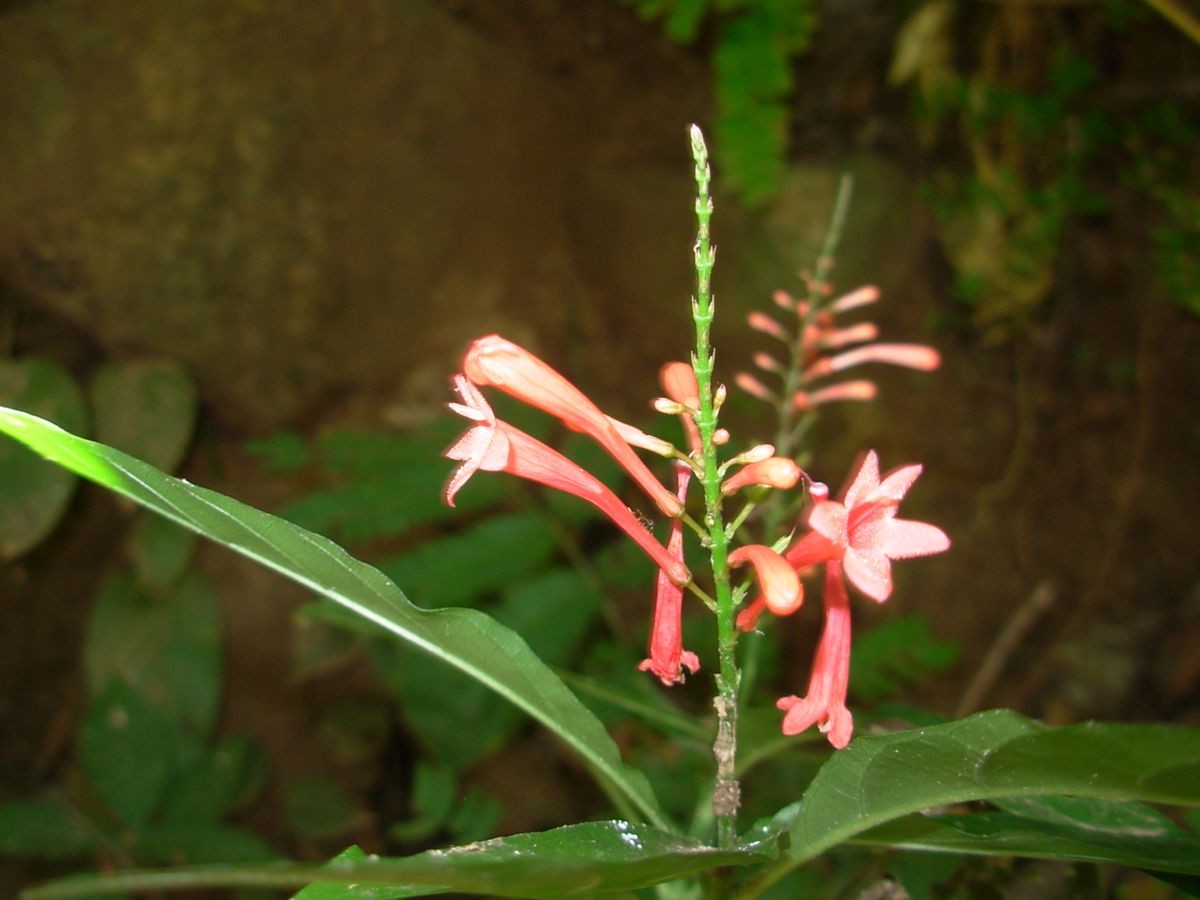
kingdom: Plantae
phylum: Tracheophyta
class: Magnoliopsida
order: Lamiales
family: Acanthaceae
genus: Odontonema
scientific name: Odontonema tubaeforme
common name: Firespike
